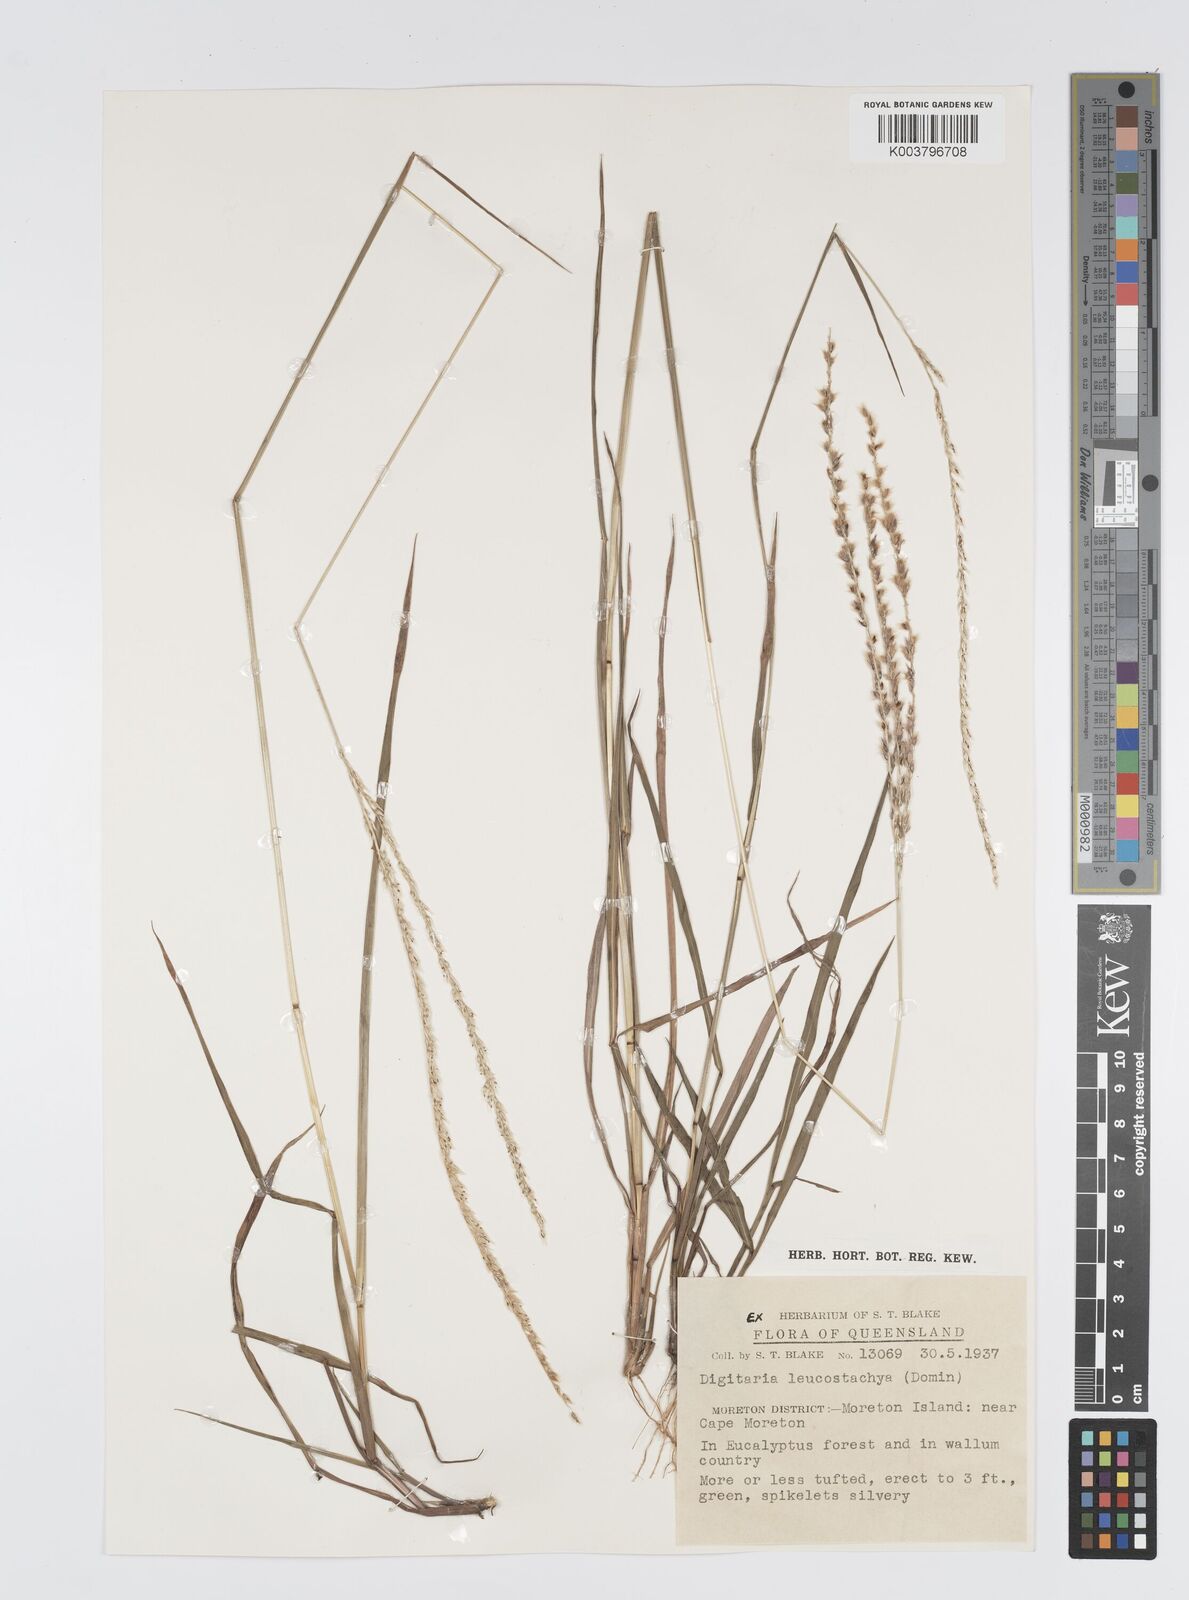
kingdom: Plantae
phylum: Tracheophyta
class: Liliopsida
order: Poales
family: Poaceae
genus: Digitaria
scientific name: Digitaria leucostachya
